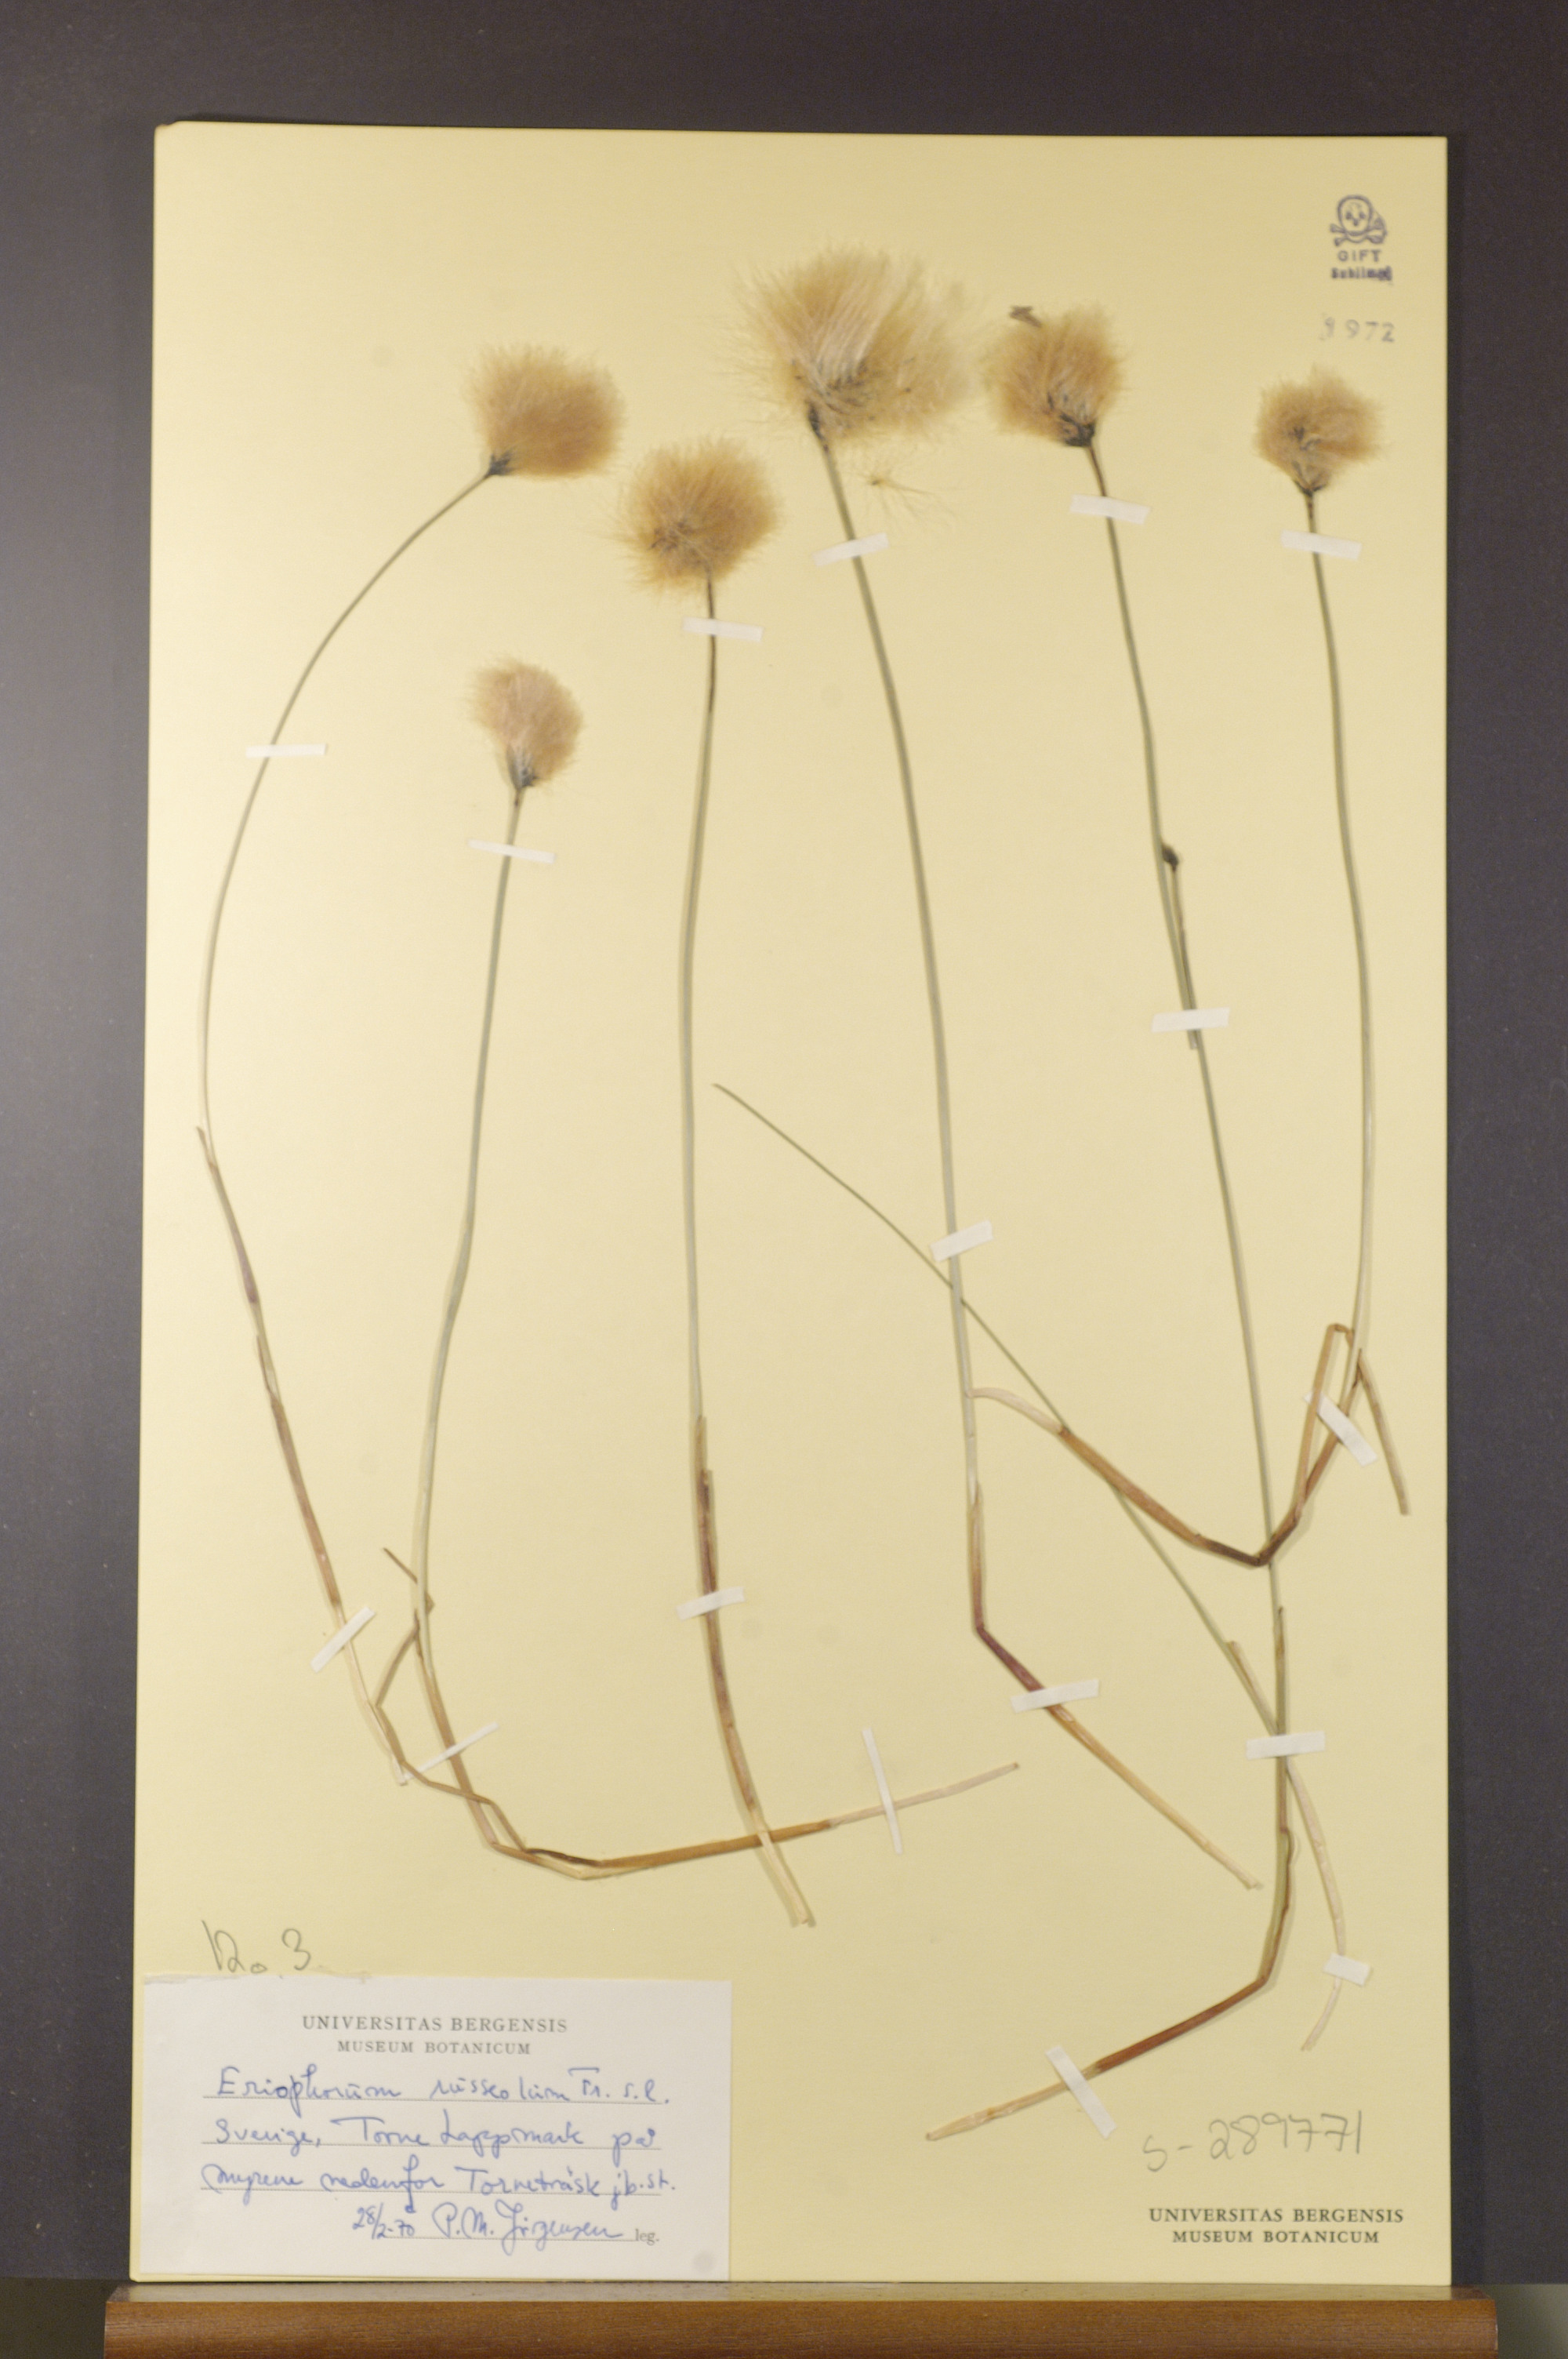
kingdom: Plantae
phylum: Tracheophyta
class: Liliopsida
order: Poales
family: Cyperaceae
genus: Eriophorum
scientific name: Eriophorum russeolum
